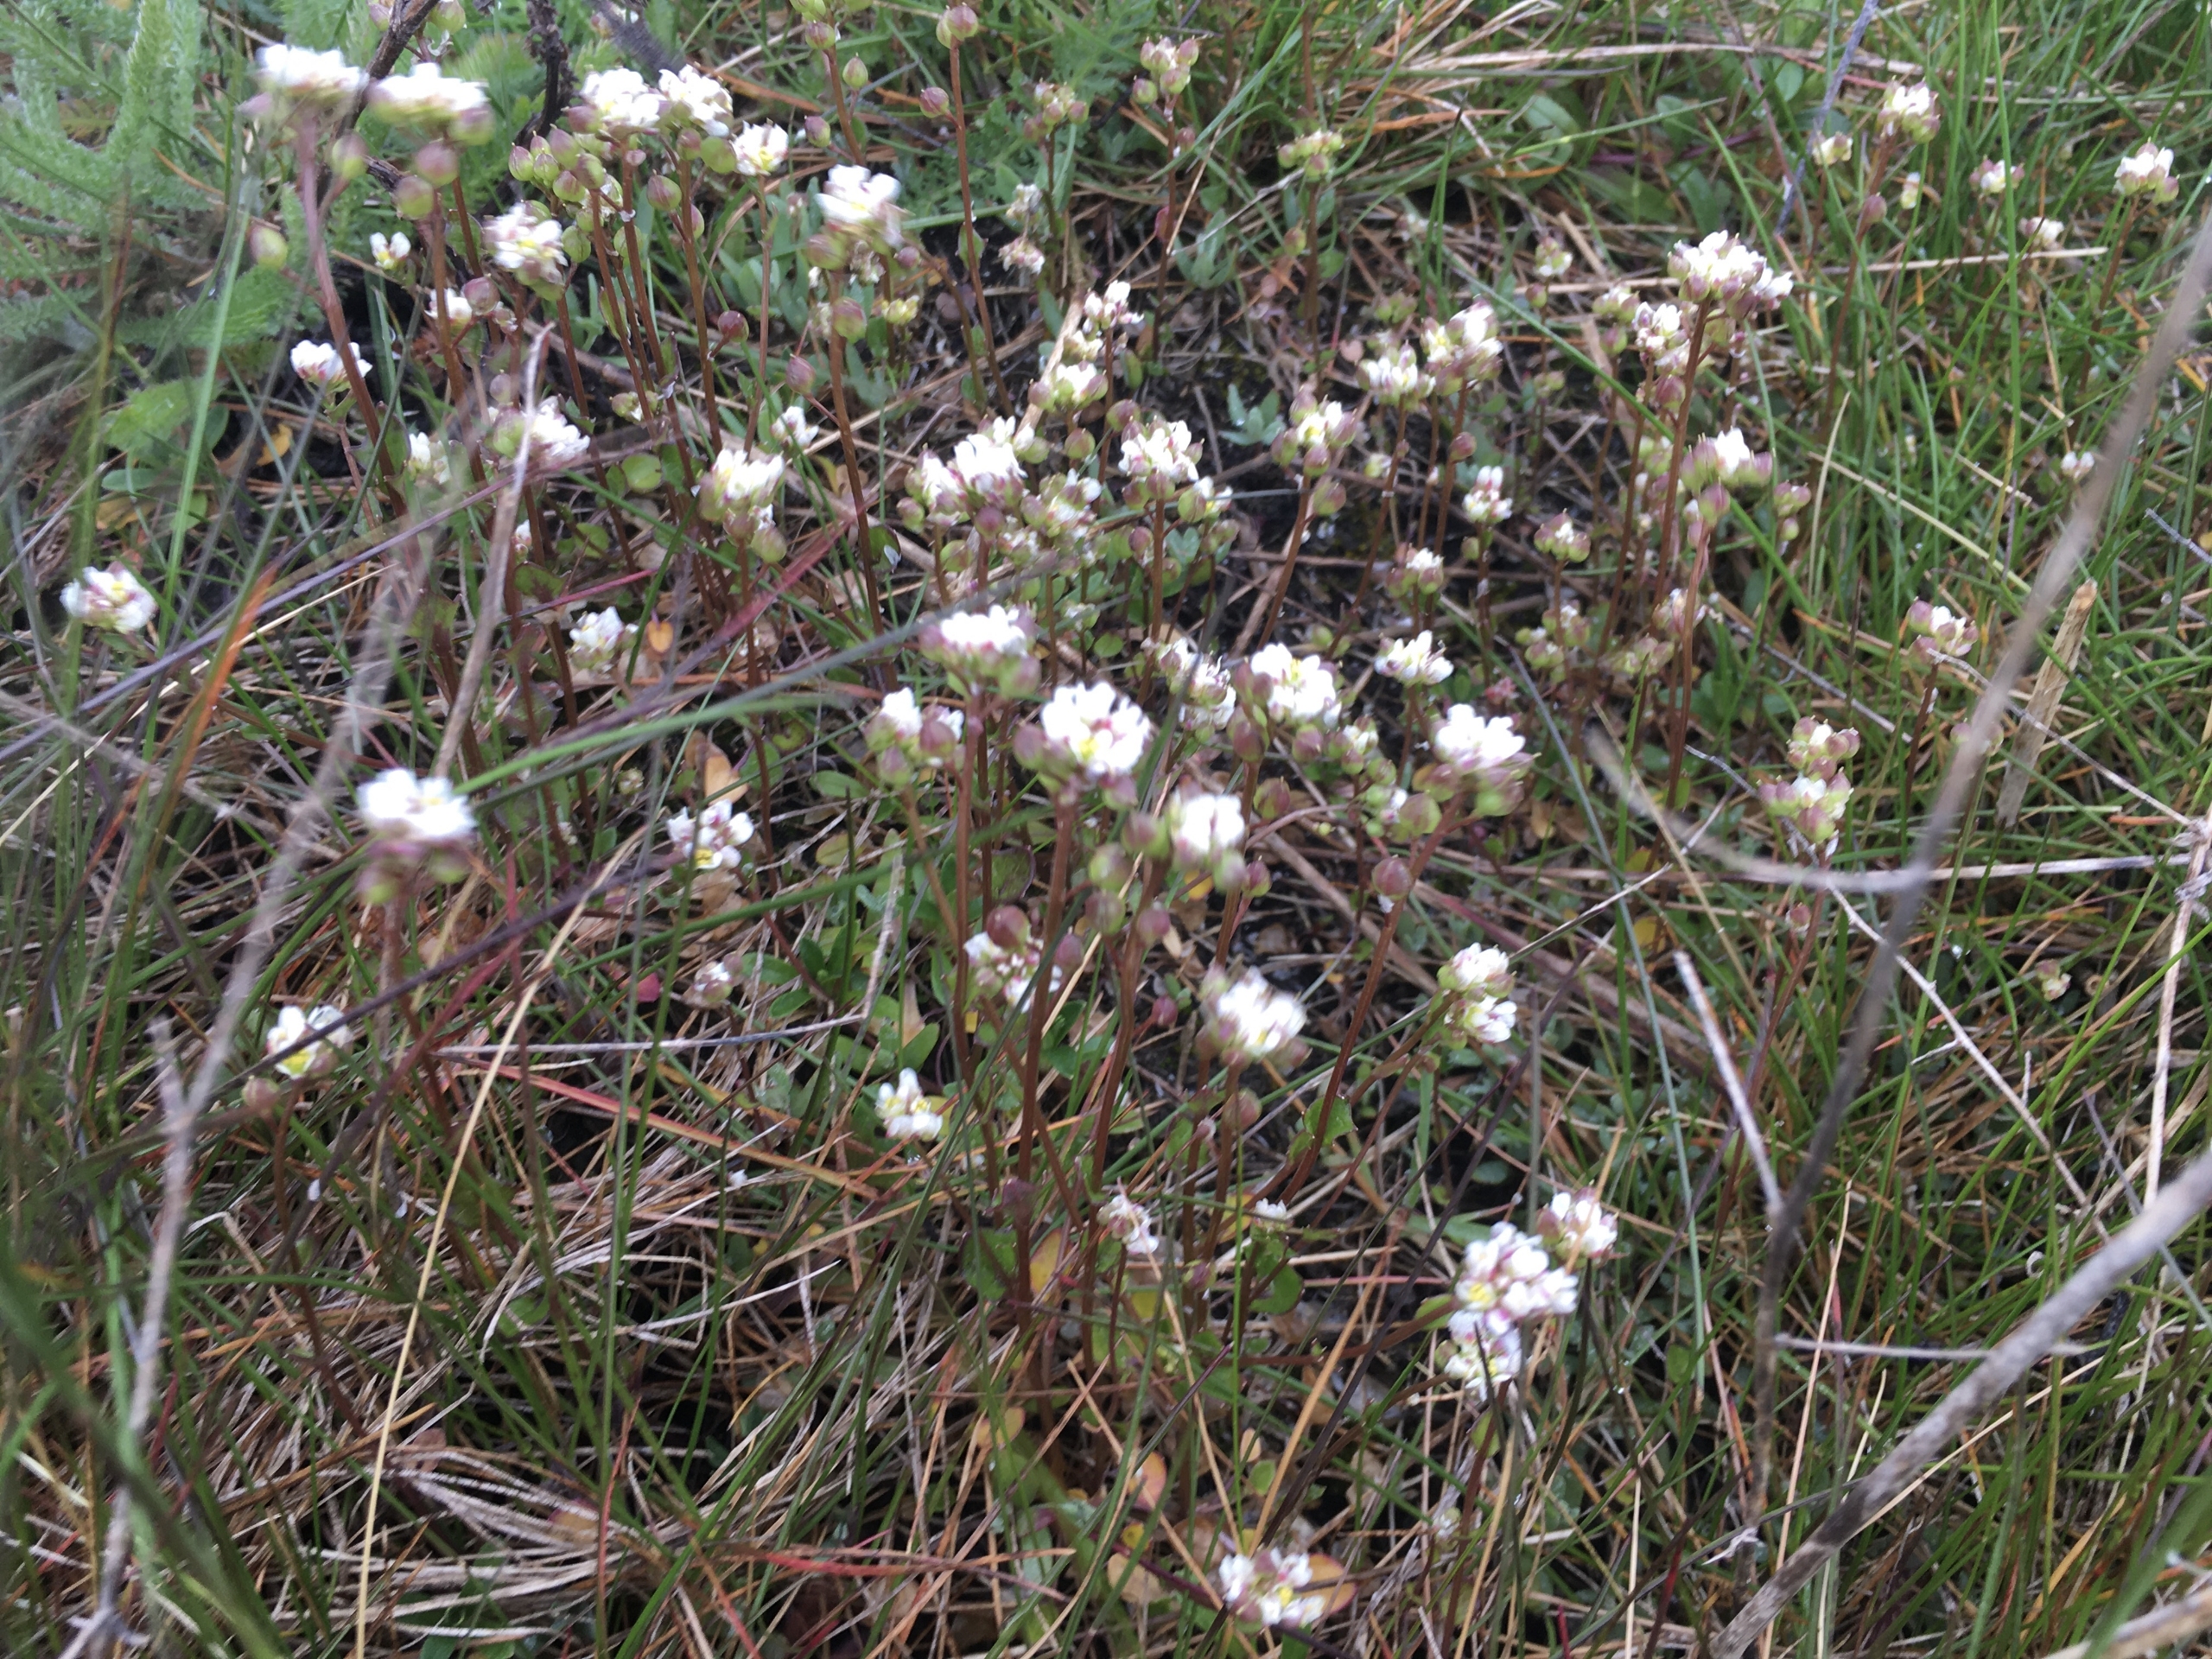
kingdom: Plantae
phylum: Tracheophyta
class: Magnoliopsida
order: Brassicales
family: Brassicaceae
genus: Cochlearia
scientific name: Cochlearia danica
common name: Dansk kokleare
